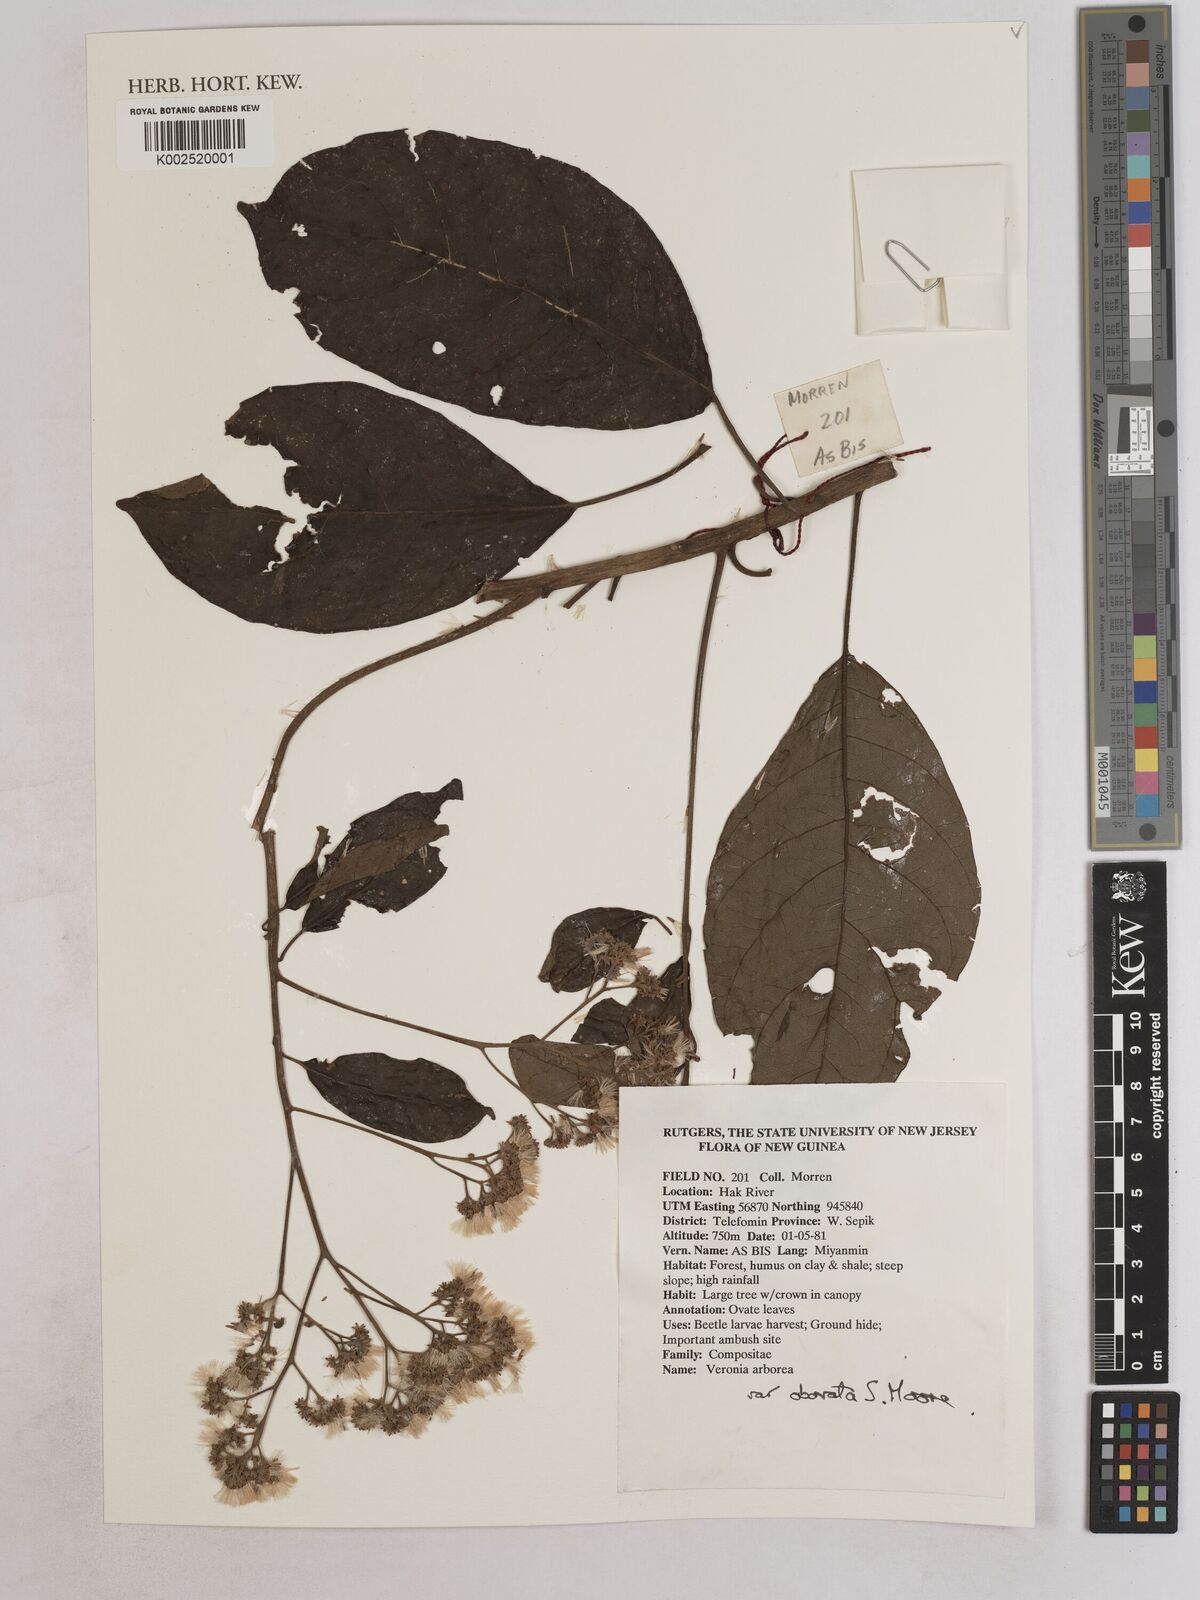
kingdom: Plantae
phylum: Tracheophyta
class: Magnoliopsida
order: Asterales
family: Asteraceae
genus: Strobocalyx
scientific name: Strobocalyx arborea
